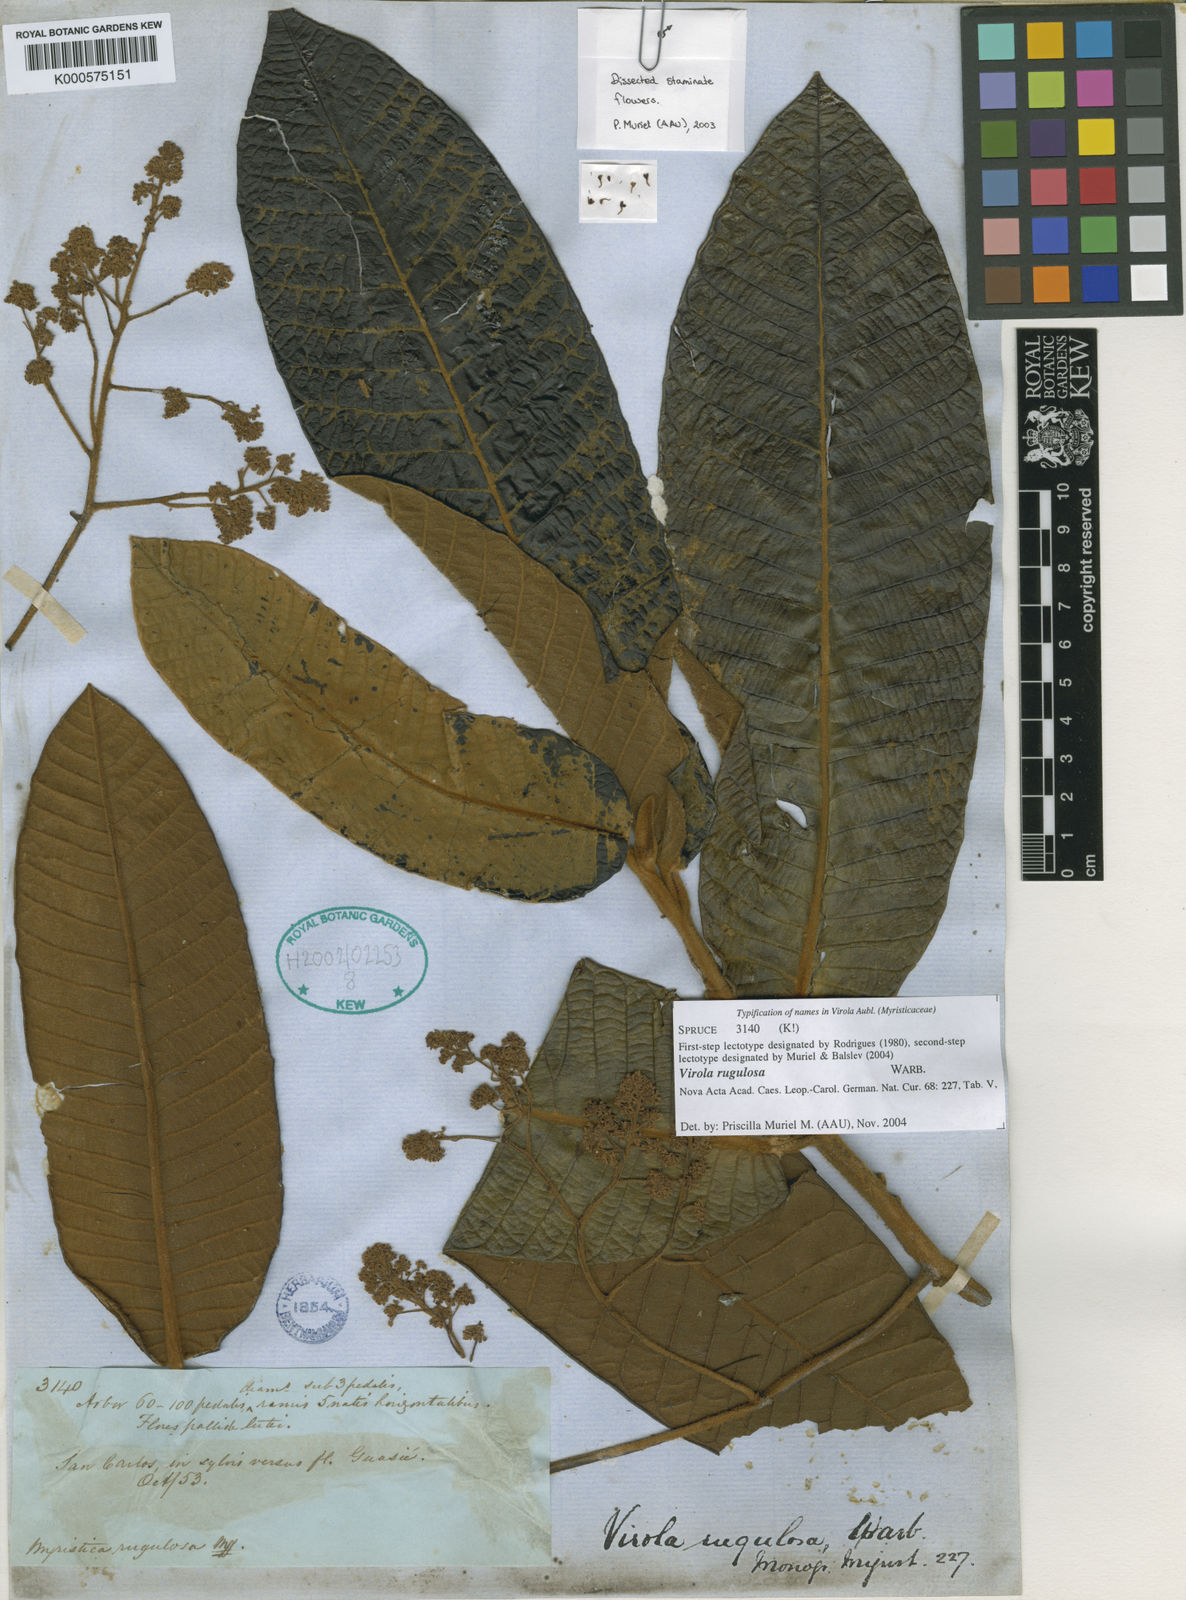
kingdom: Plantae
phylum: Tracheophyta
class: Magnoliopsida
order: Magnoliales
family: Myristicaceae
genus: Virola
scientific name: Virola rugulosa
